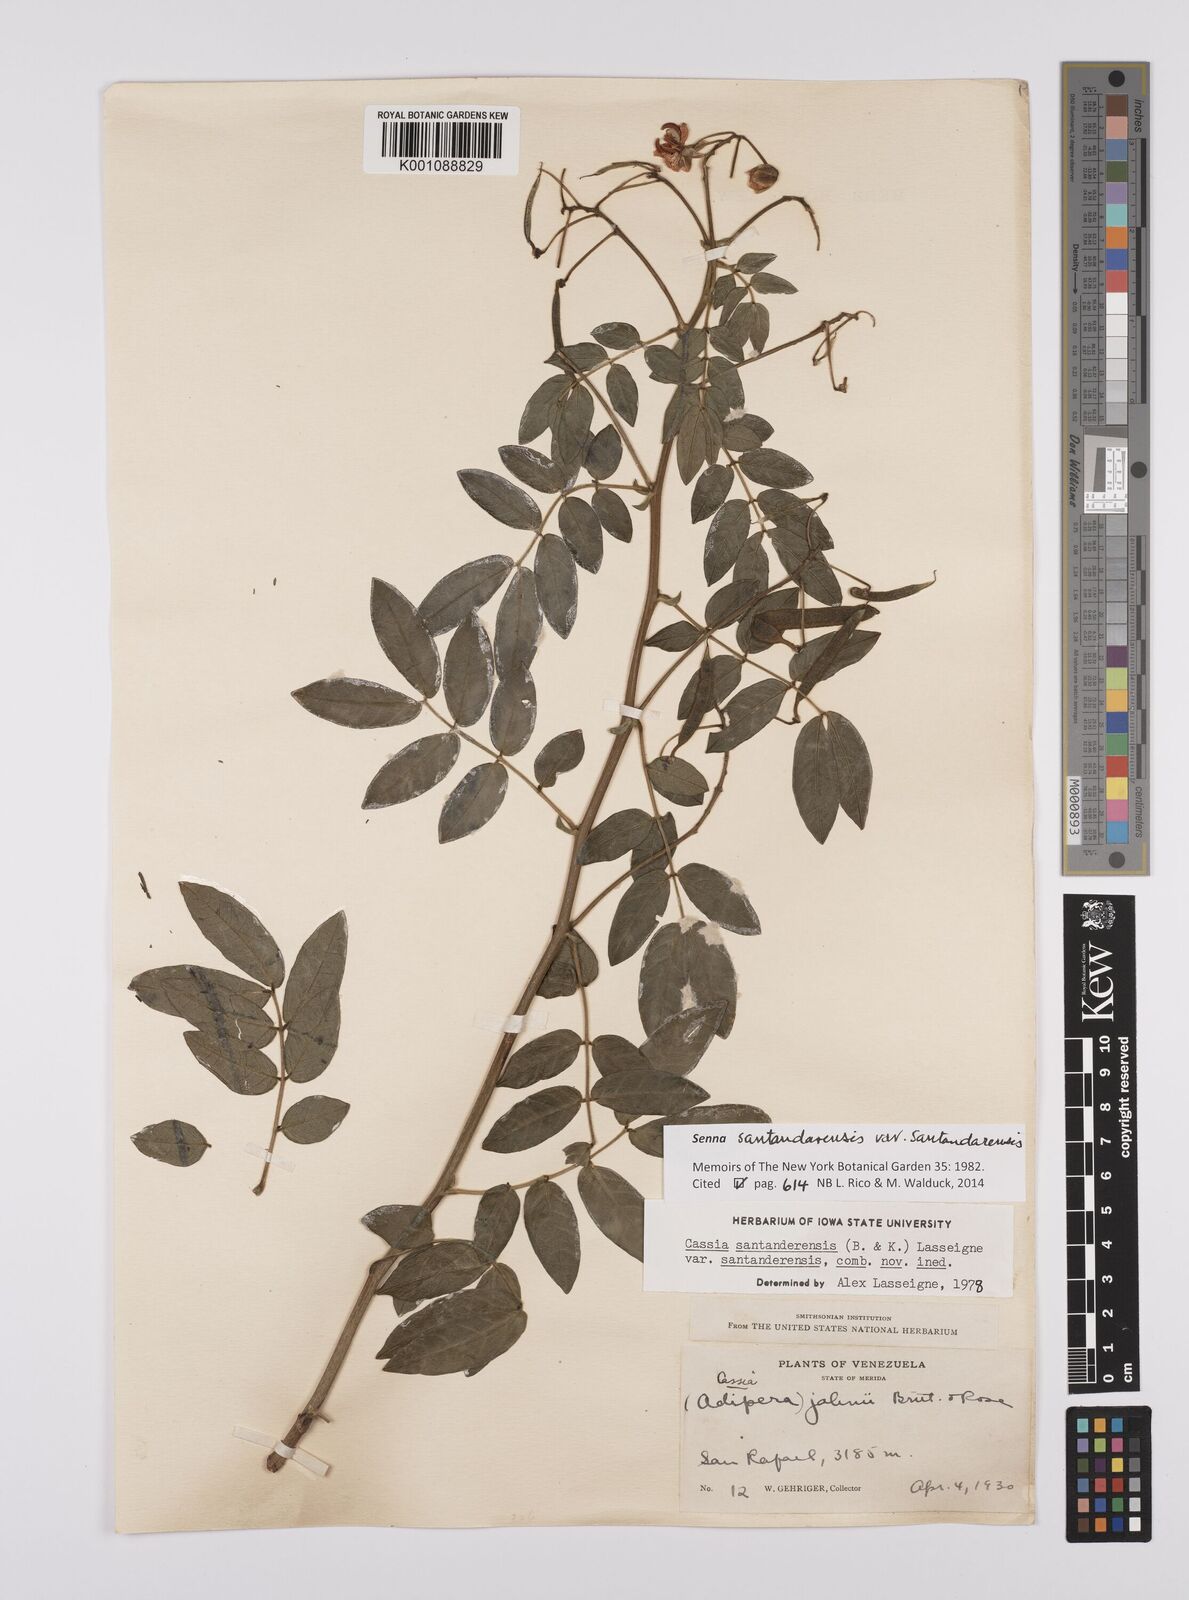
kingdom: Plantae
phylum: Tracheophyta
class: Magnoliopsida
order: Fabales
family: Fabaceae
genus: Senna
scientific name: Senna santanderensis
